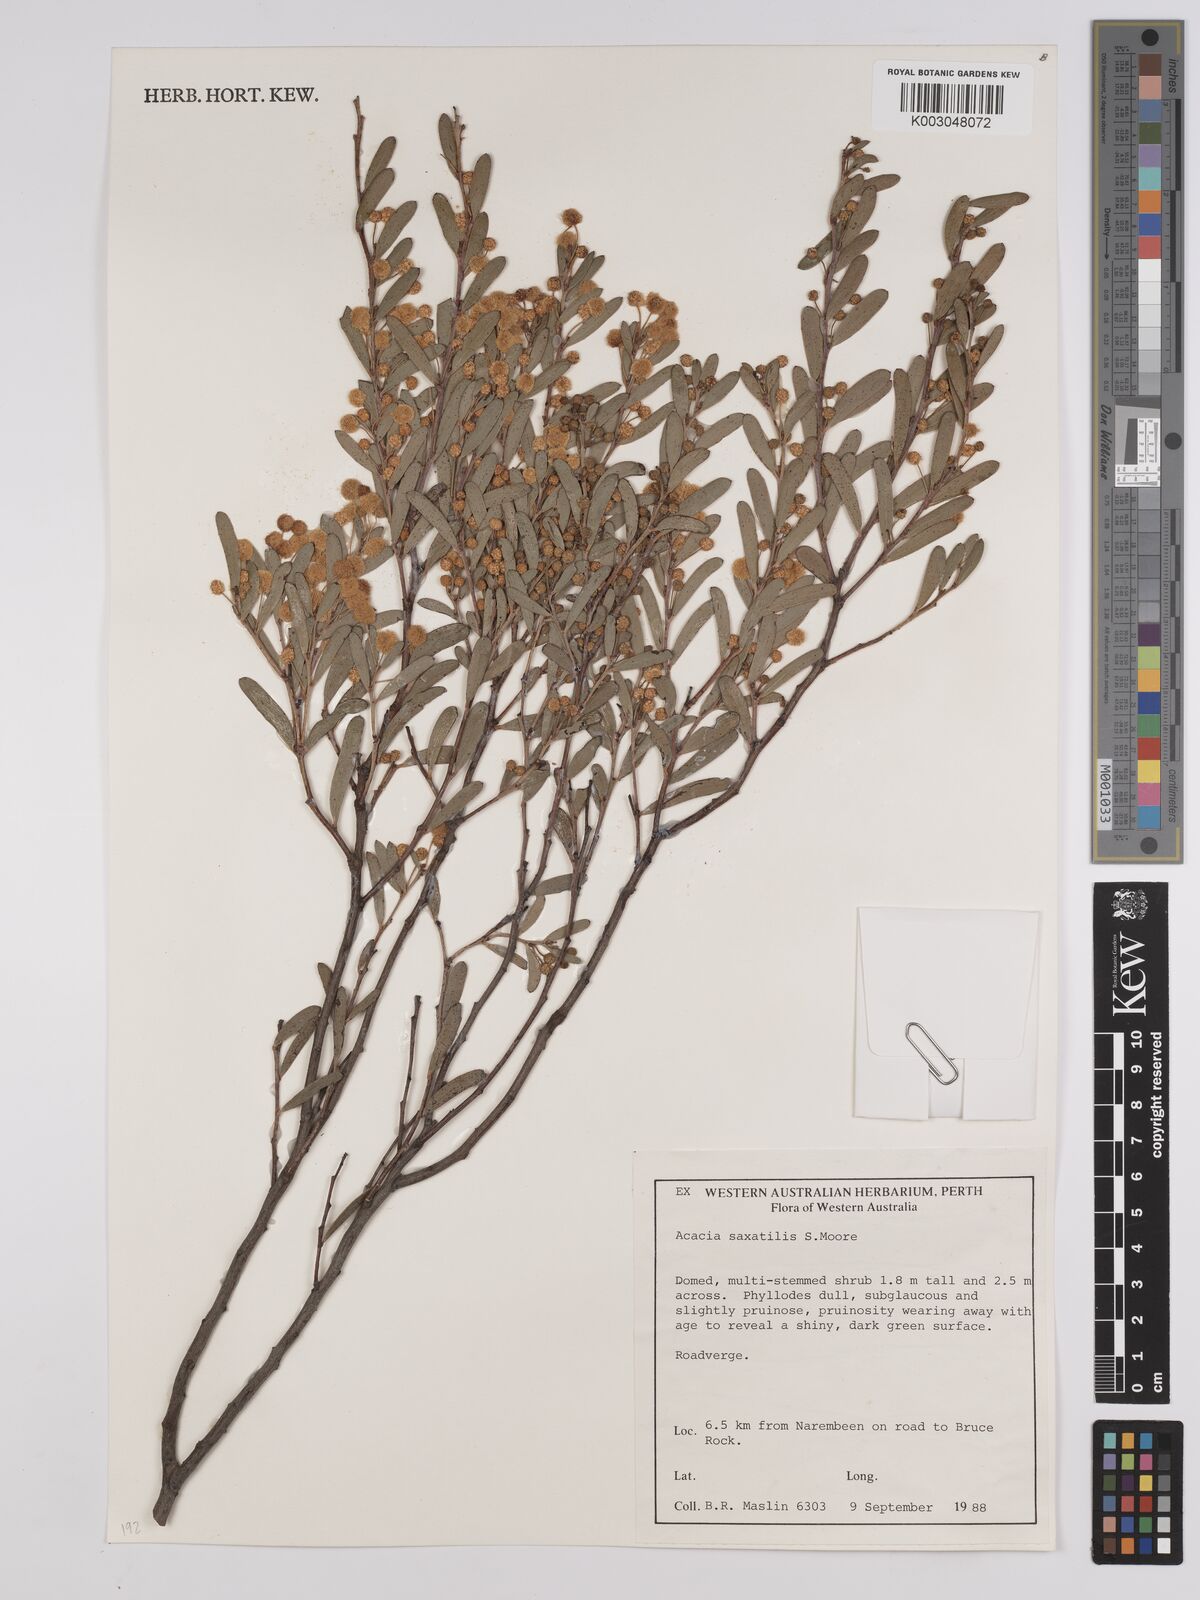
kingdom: Plantae
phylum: Tracheophyta
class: Magnoliopsida
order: Fabales
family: Fabaceae
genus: Acacia
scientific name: Acacia saxatilis
